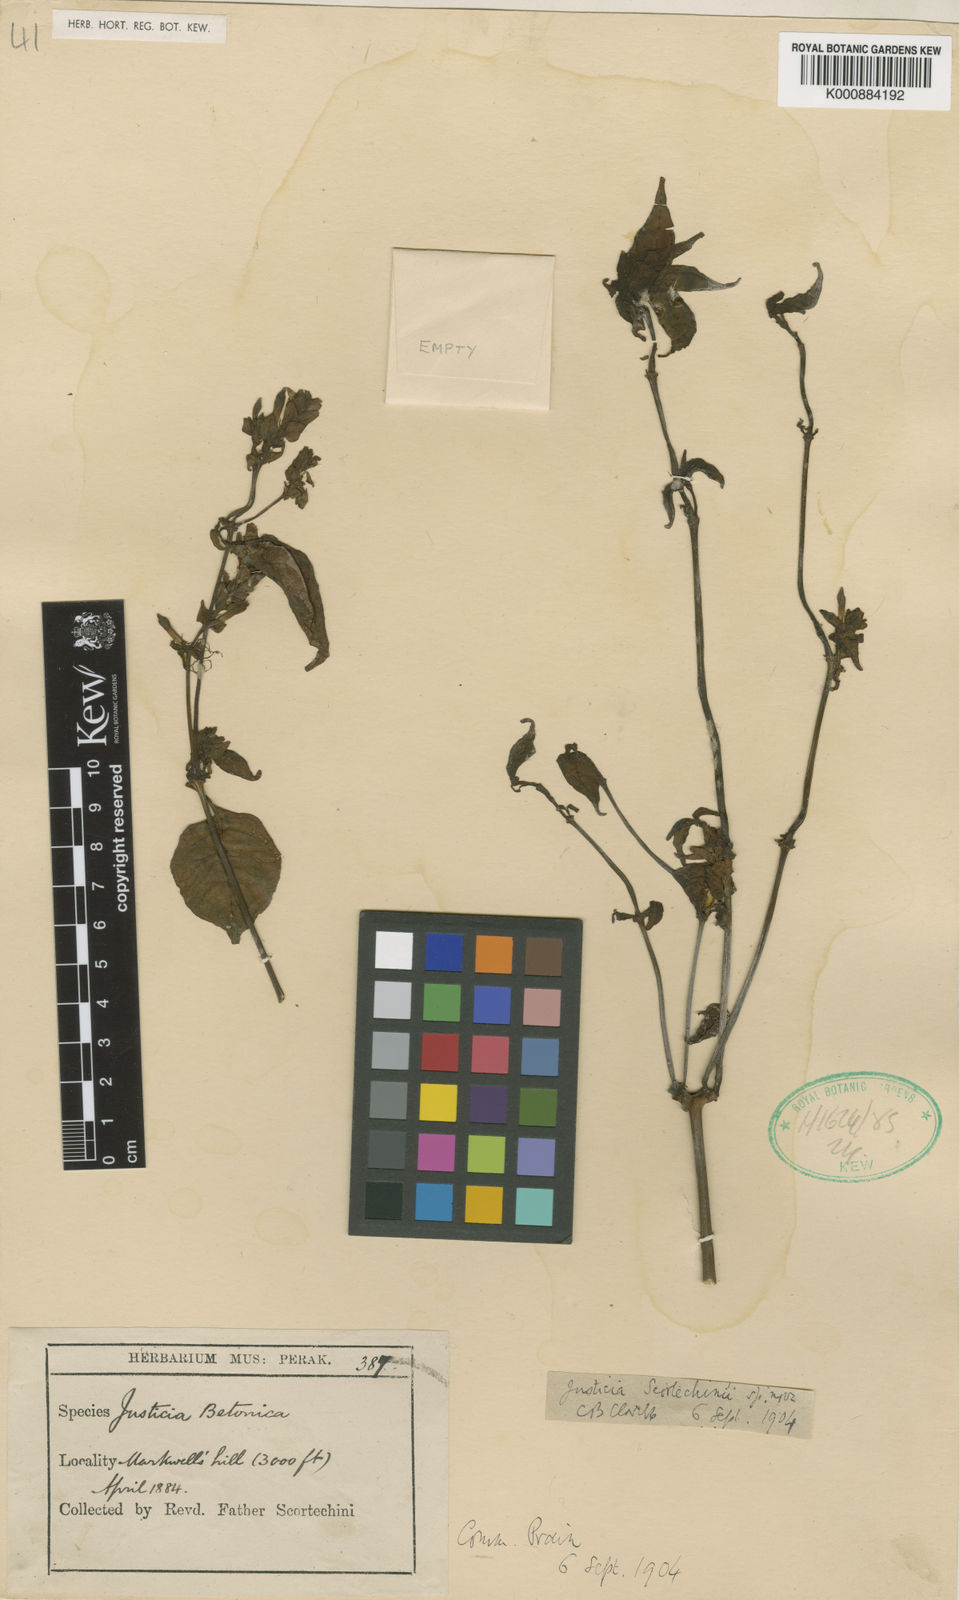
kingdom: Plantae
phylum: Tracheophyta
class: Magnoliopsida
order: Lamiales
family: Acanthaceae
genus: Justicia
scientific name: Justicia scortechinii
